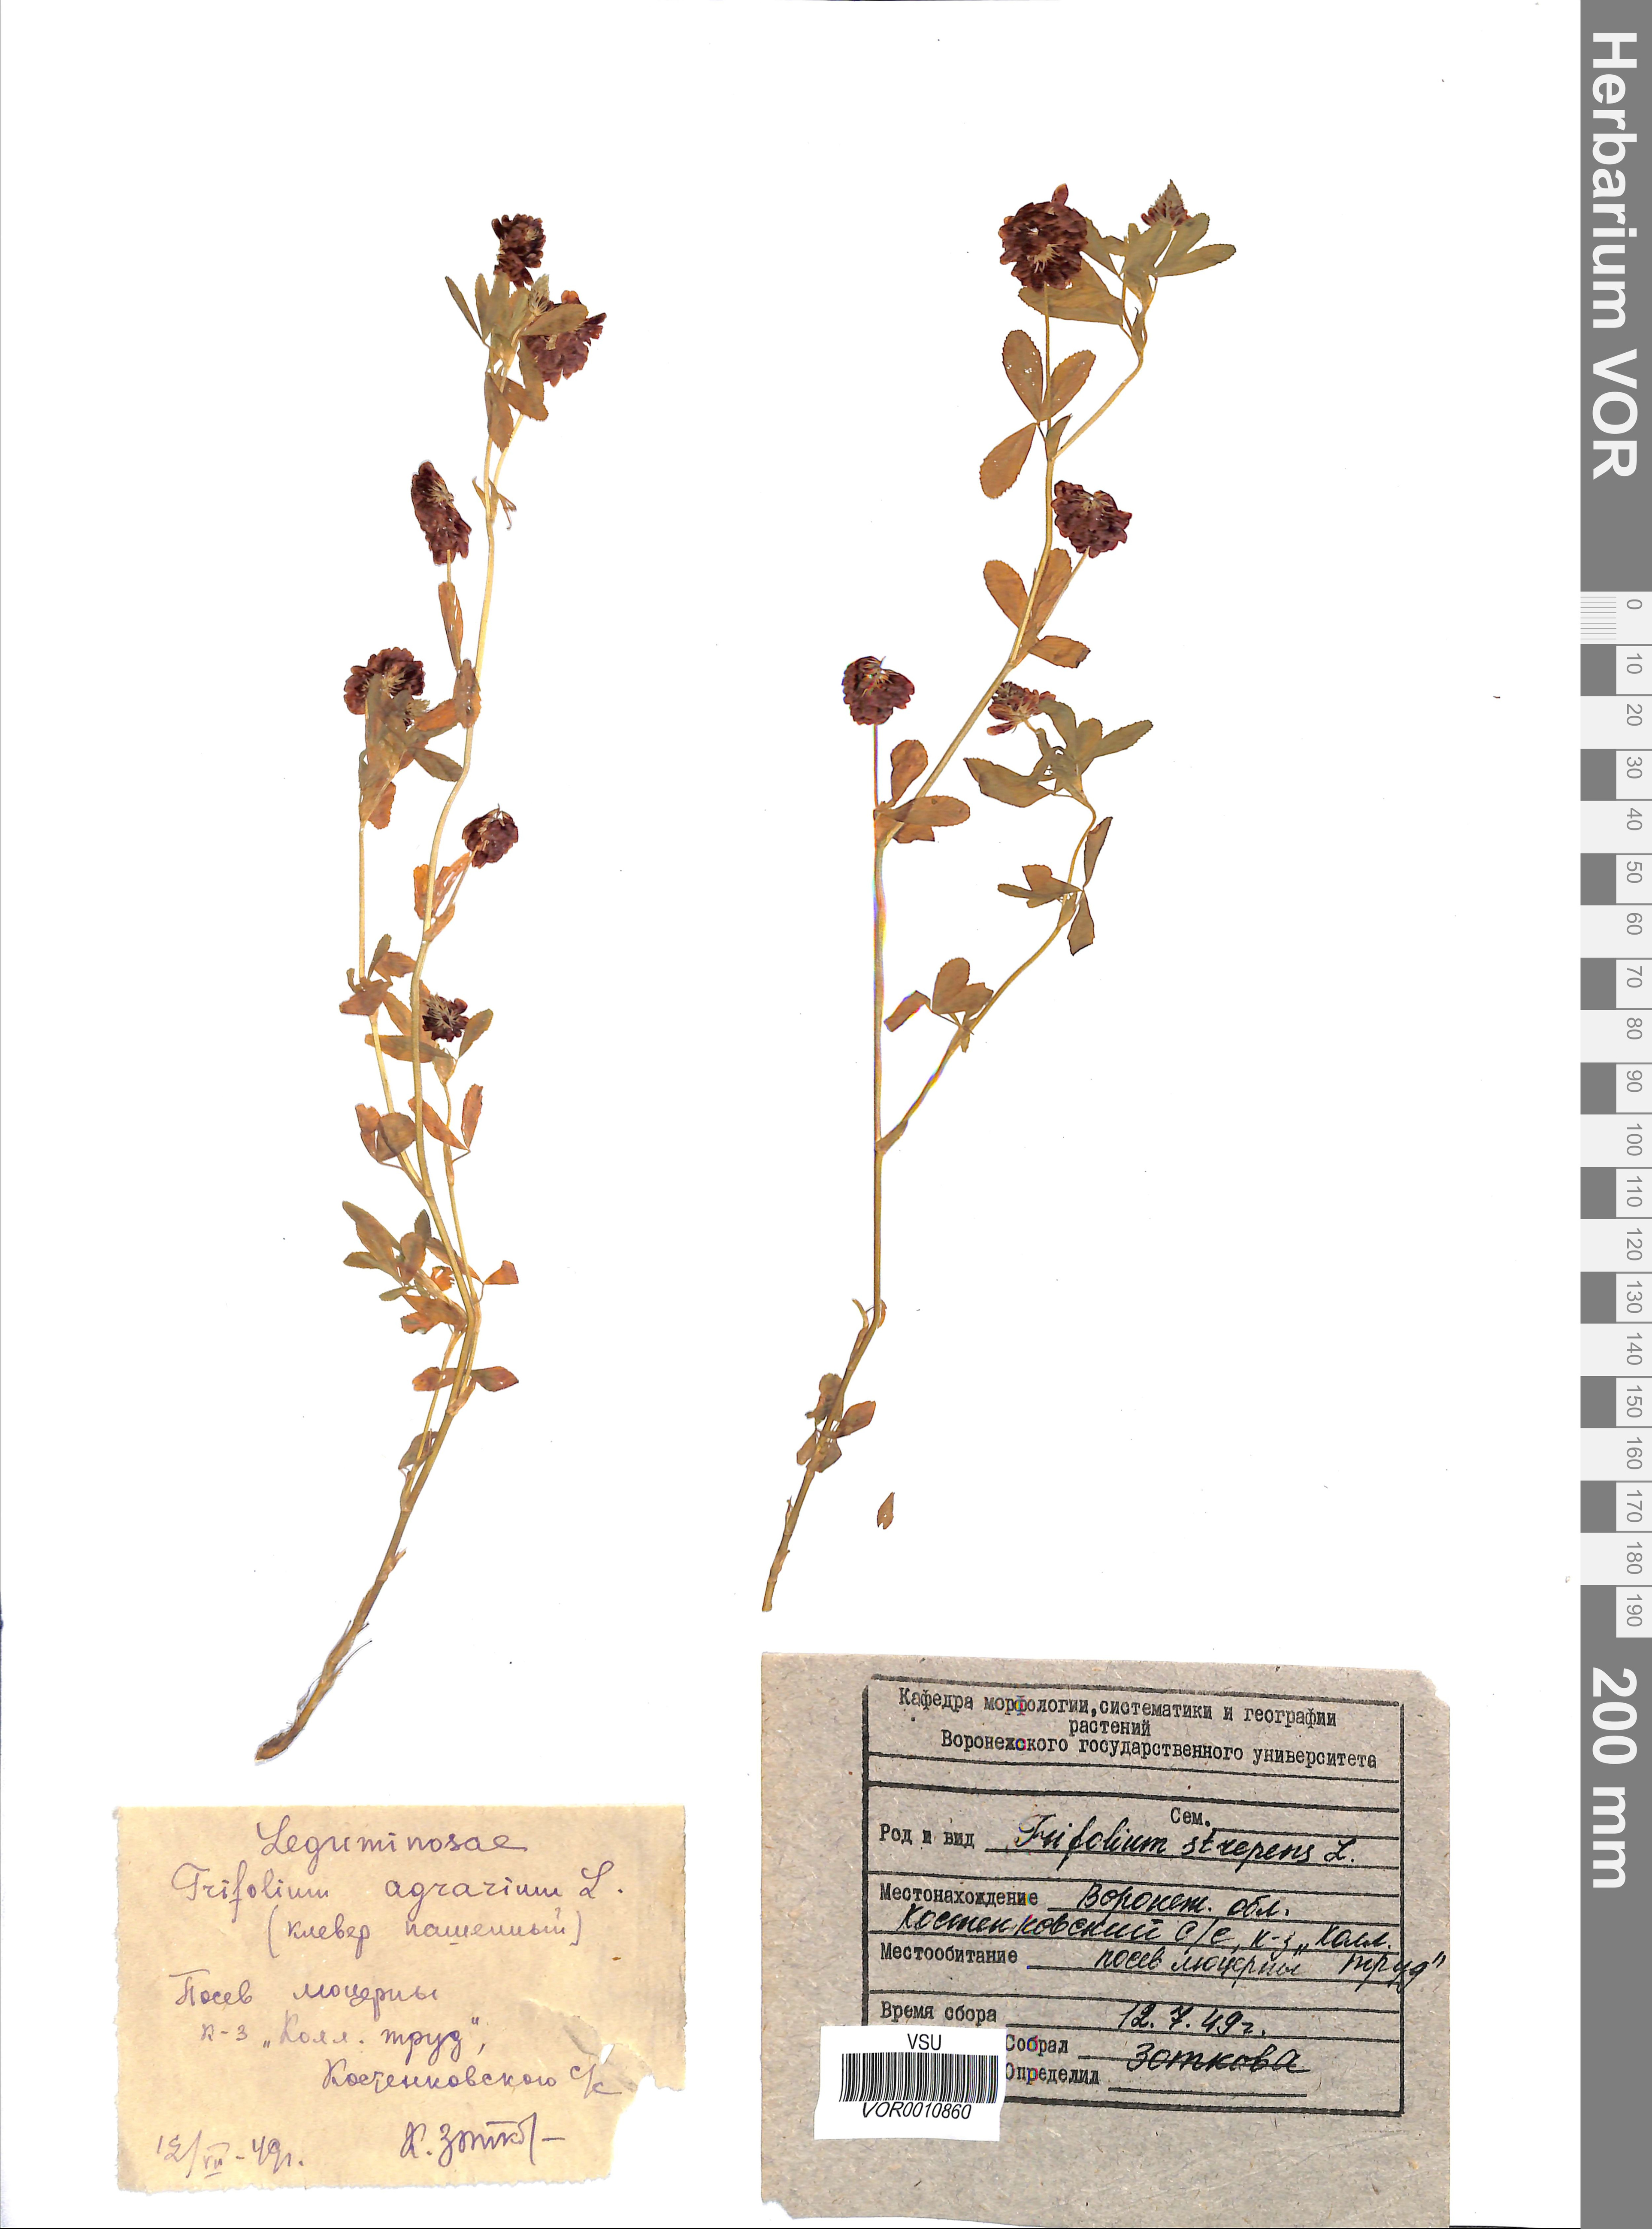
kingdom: Plantae
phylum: Tracheophyta
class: Magnoliopsida
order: Fabales
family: Fabaceae
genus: Trifolium
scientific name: Trifolium aureum
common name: Golden clover
